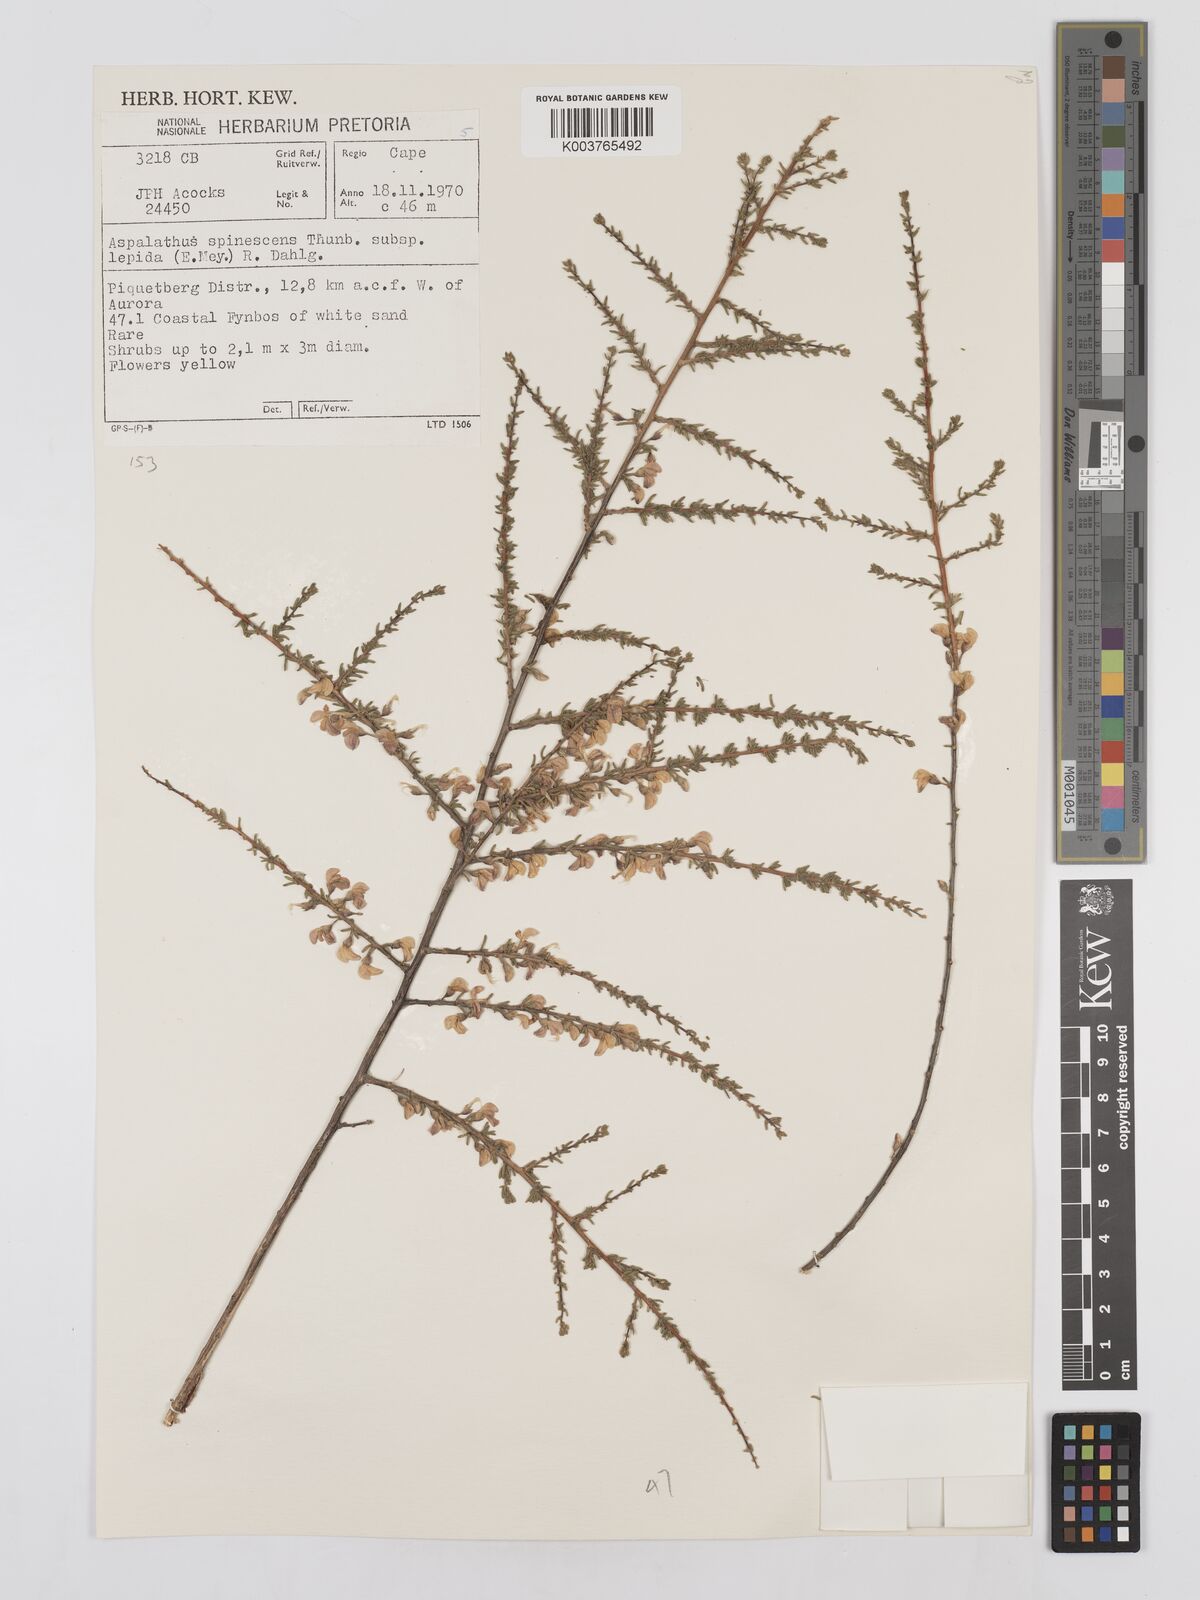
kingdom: Plantae
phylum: Tracheophyta
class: Magnoliopsida
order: Fabales
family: Fabaceae
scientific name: Fabaceae
